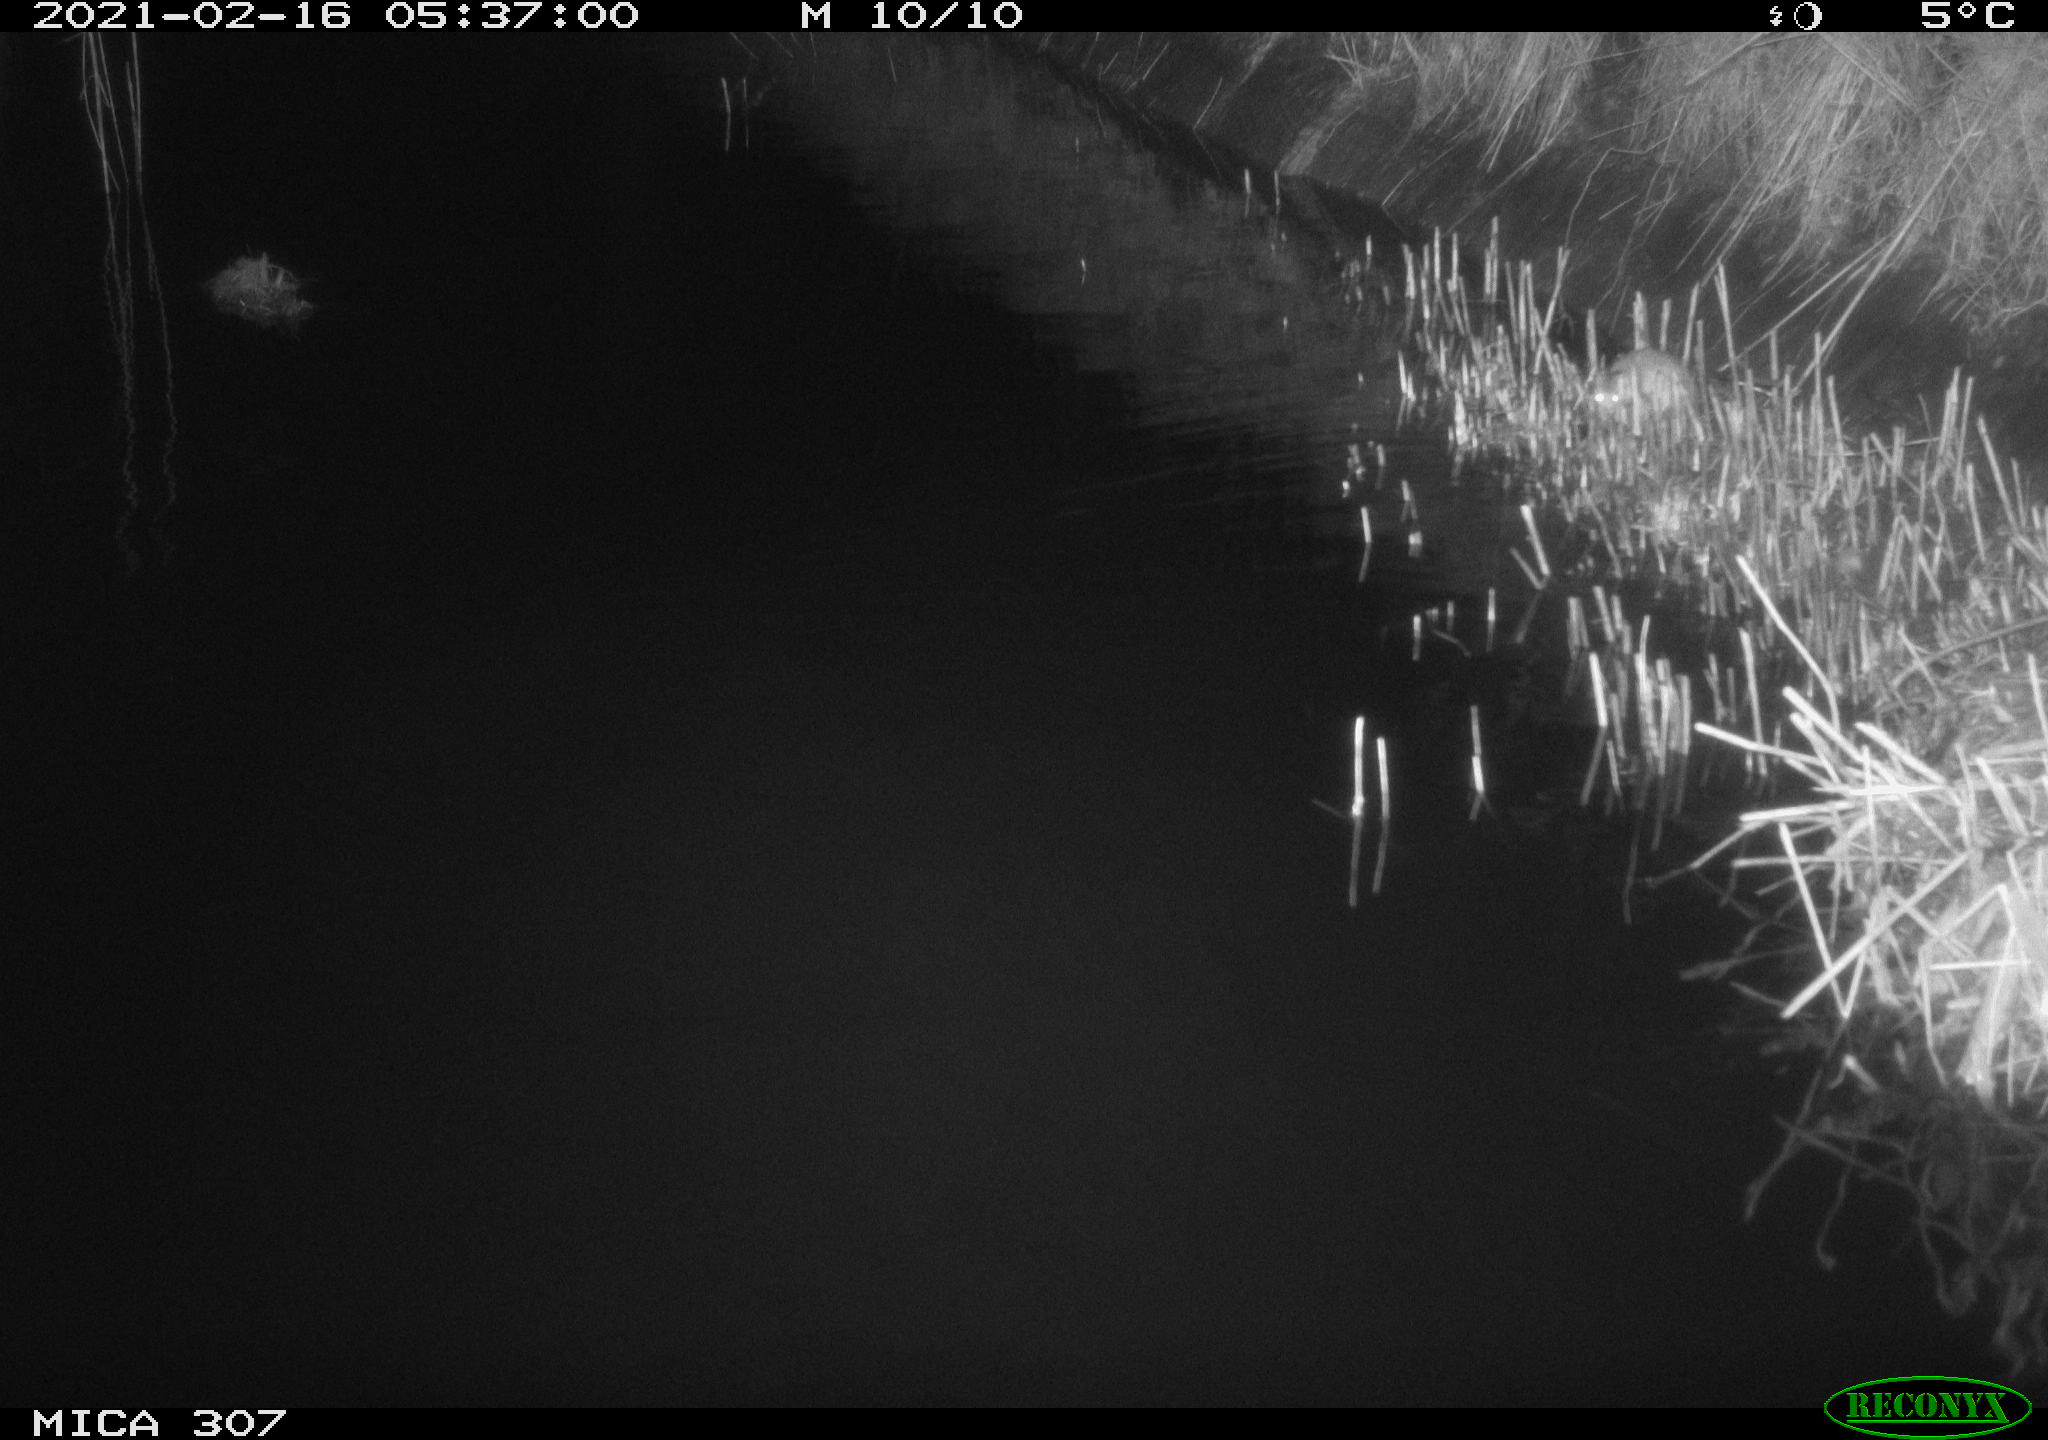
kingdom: Animalia
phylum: Chordata
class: Mammalia
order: Rodentia
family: Muridae
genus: Rattus
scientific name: Rattus norvegicus
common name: Brown rat
